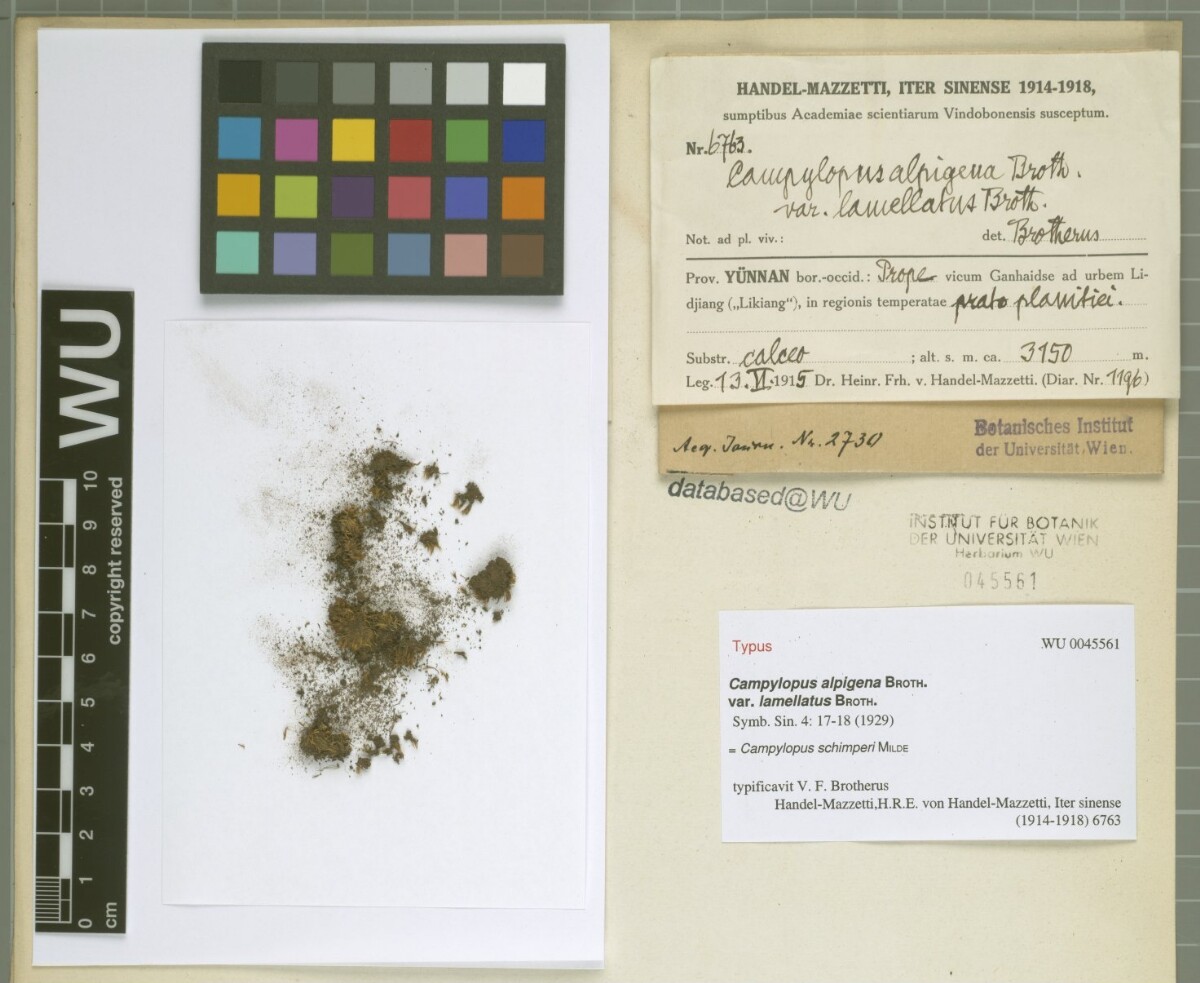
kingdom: Plantae
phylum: Bryophyta
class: Bryopsida
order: Dicranales
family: Leucobryaceae
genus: Campylopus
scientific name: Campylopus schimperi
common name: Schimper's swan-neck moss
